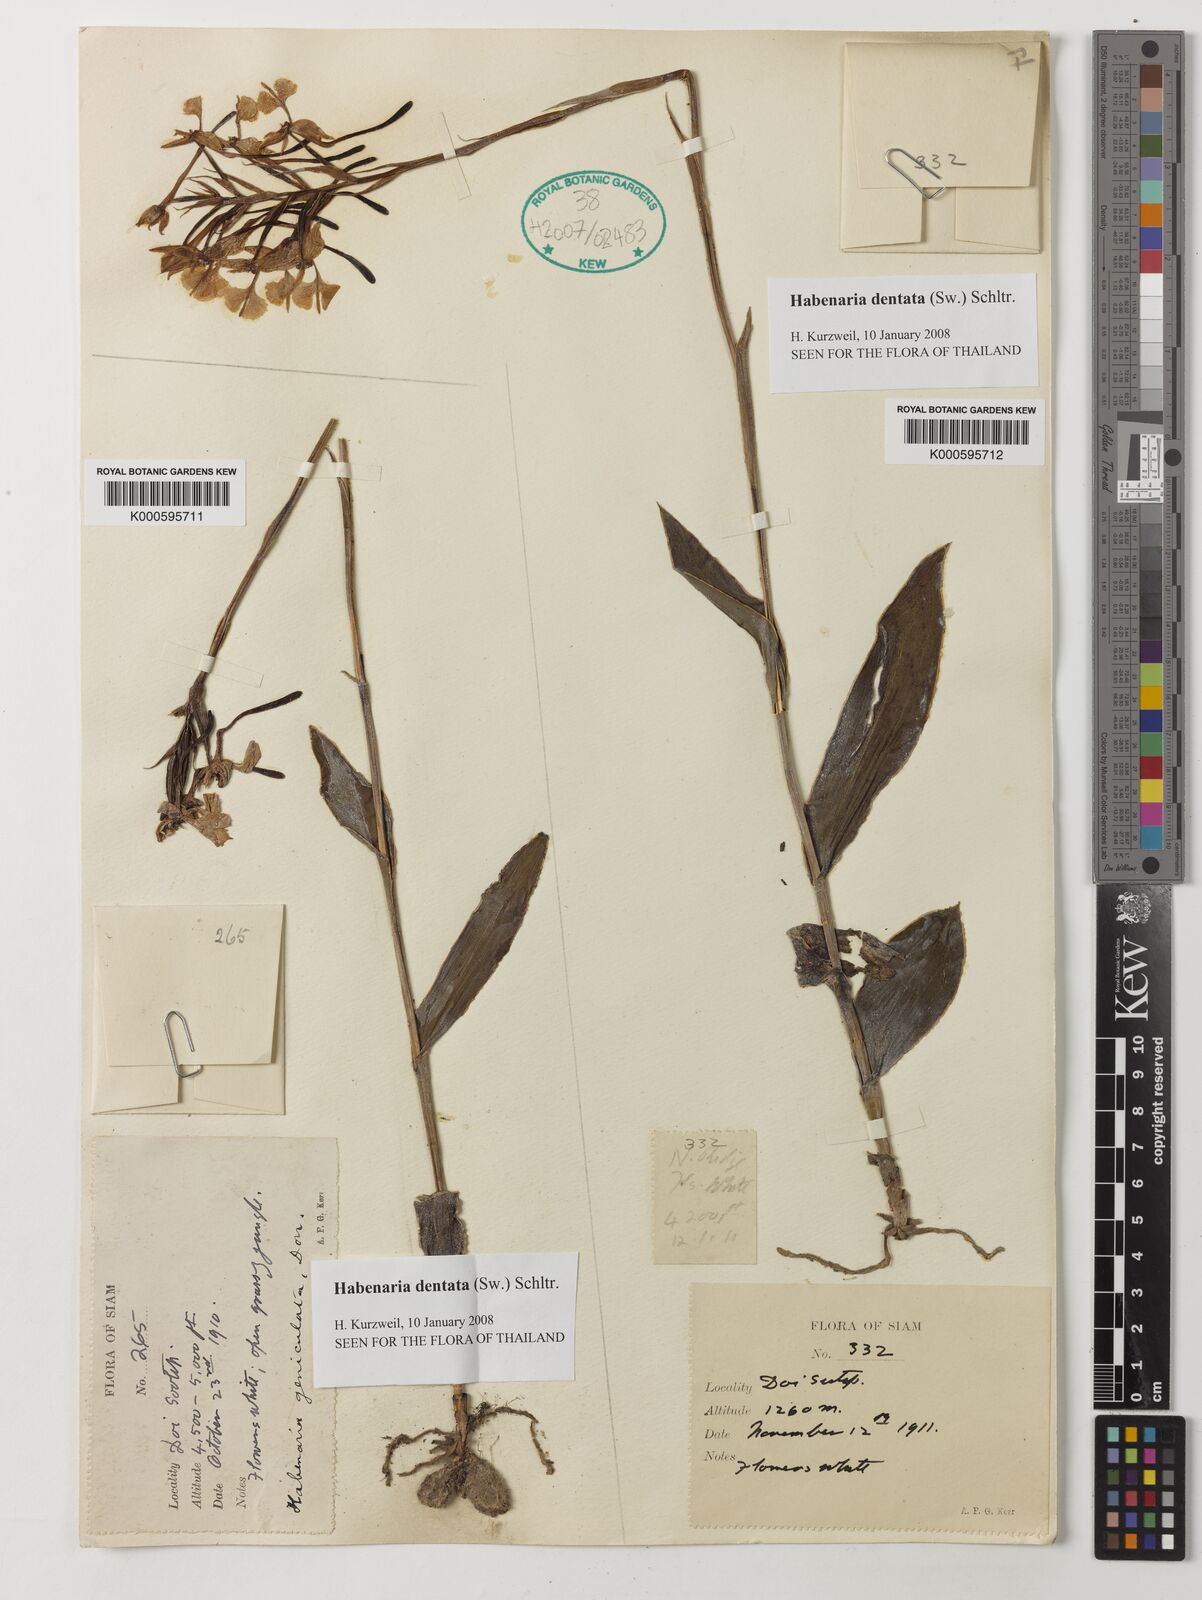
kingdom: Plantae
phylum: Tracheophyta
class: Liliopsida
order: Asparagales
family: Orchidaceae
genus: Habenaria
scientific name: Habenaria dentata
